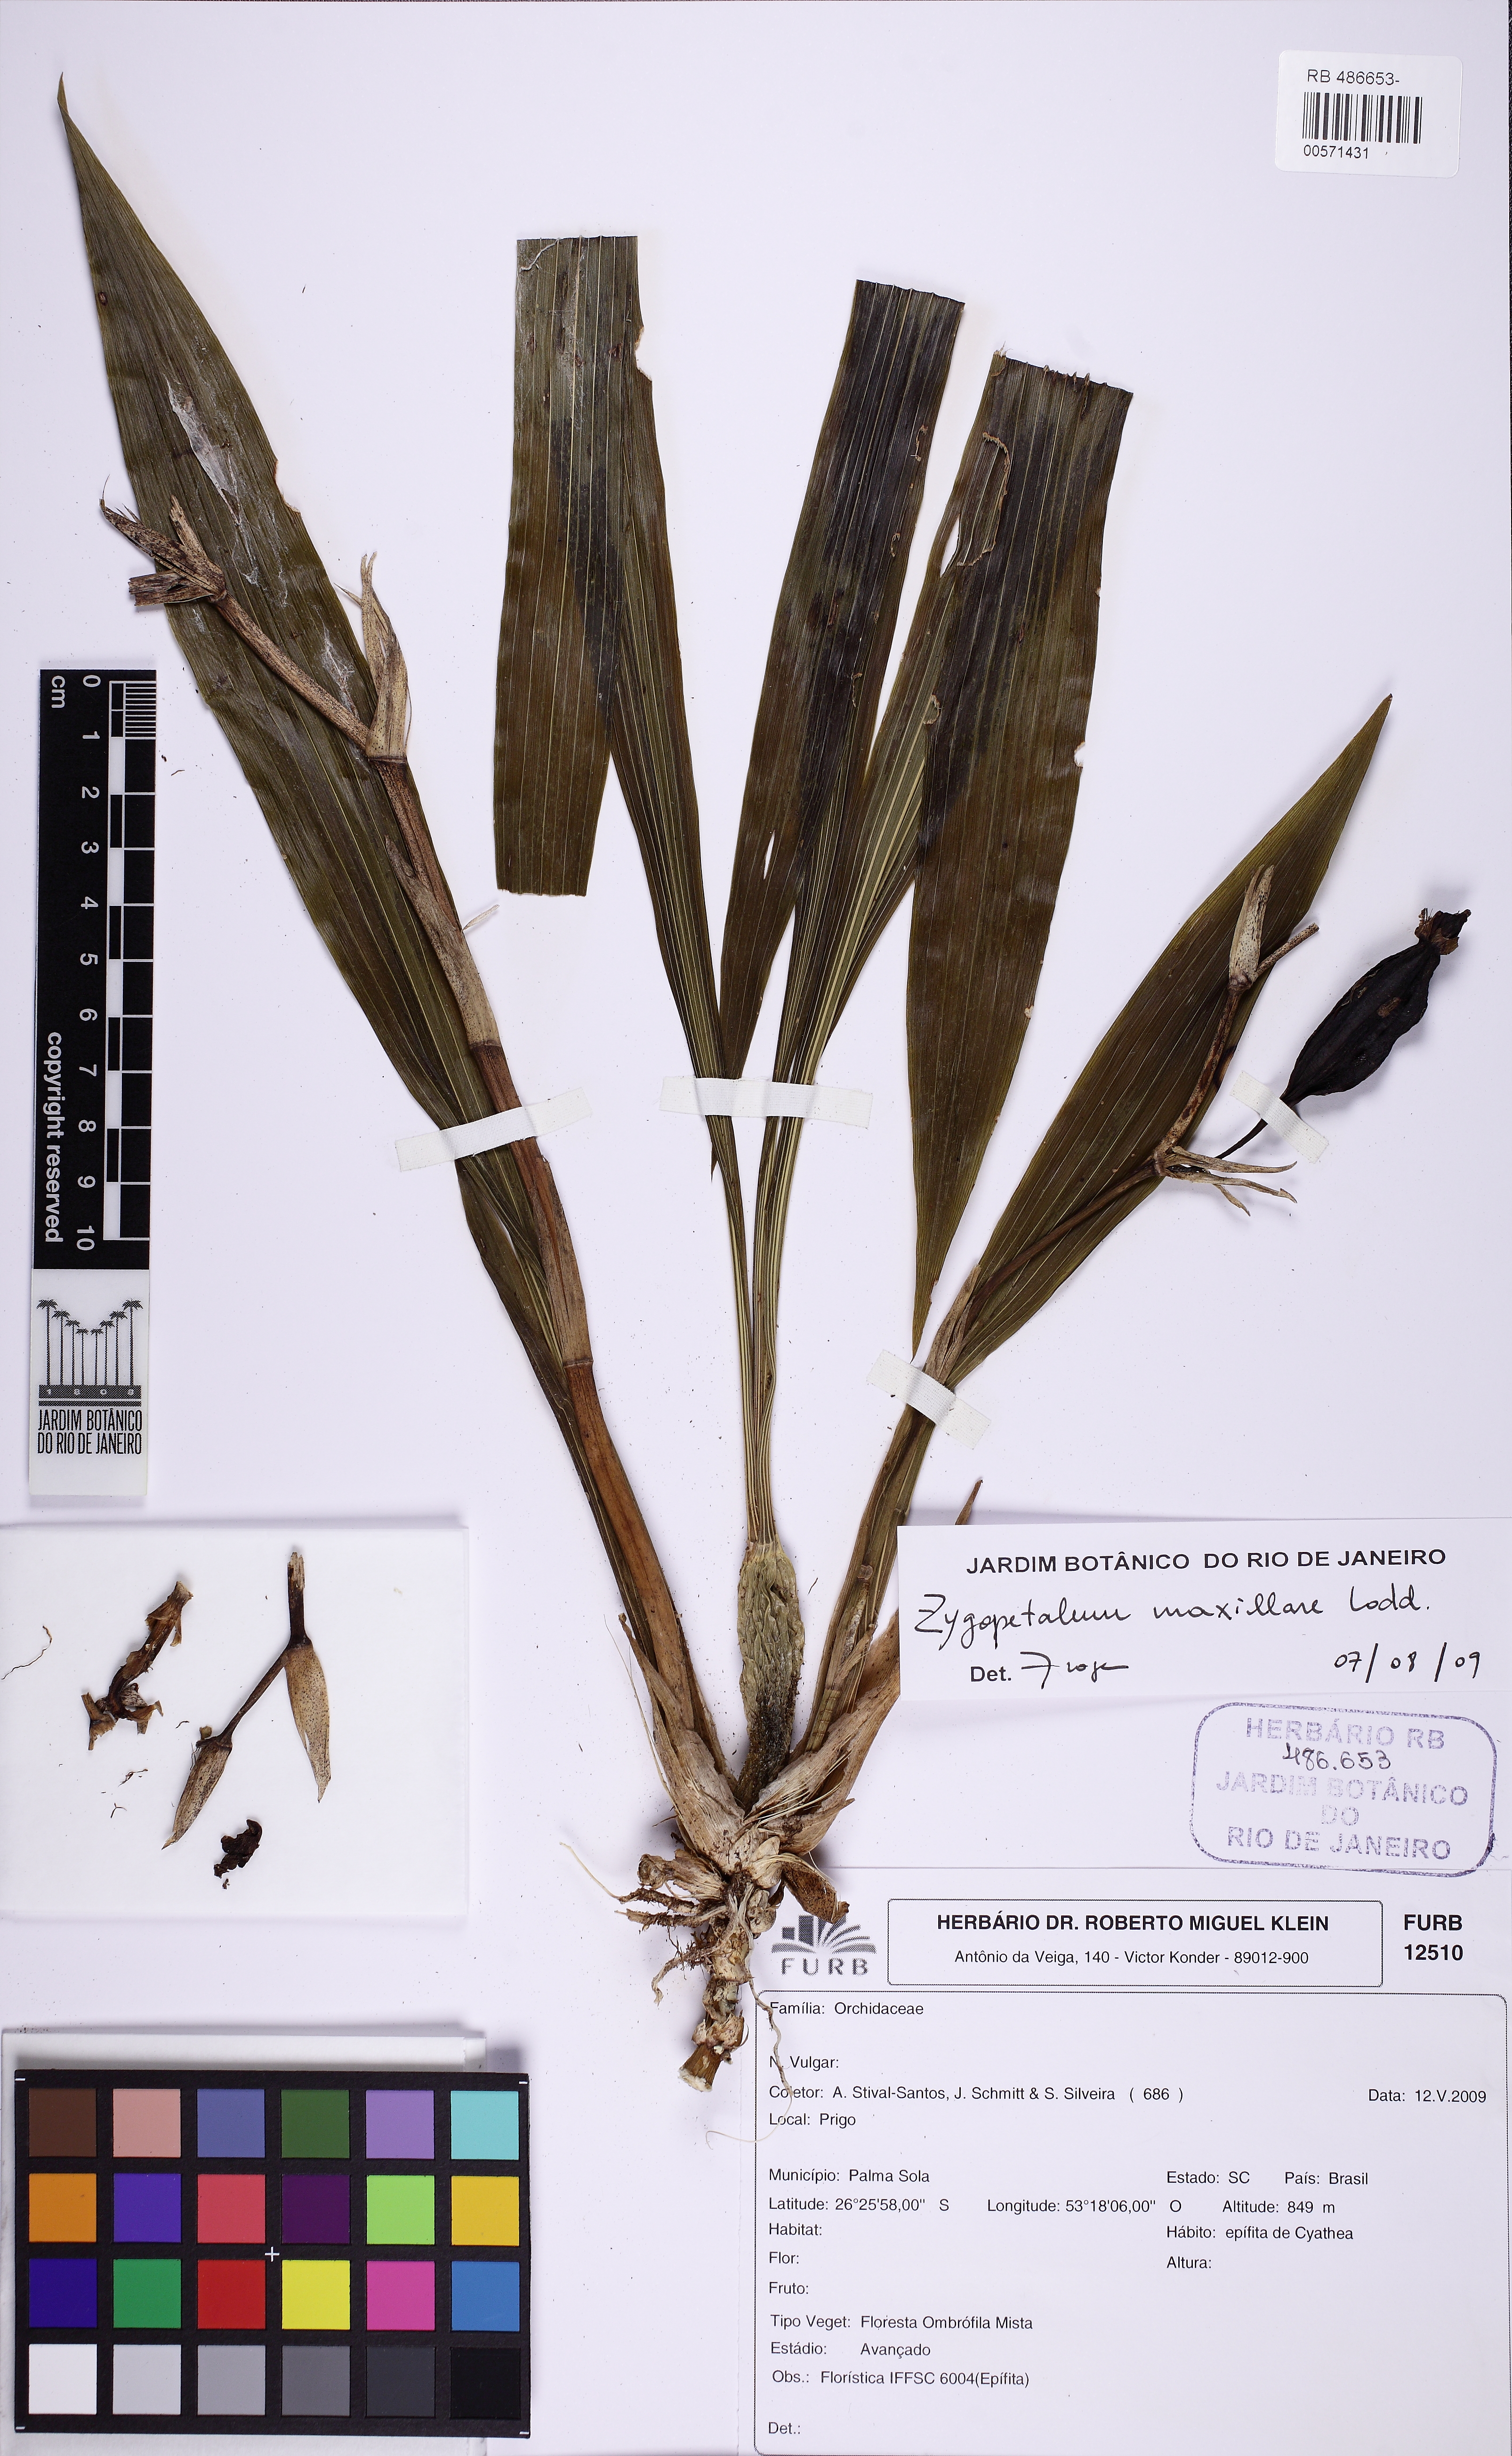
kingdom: Plantae
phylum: Tracheophyta
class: Liliopsida
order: Asparagales
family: Orchidaceae
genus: Zygopetalum
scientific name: Zygopetalum maxillare
